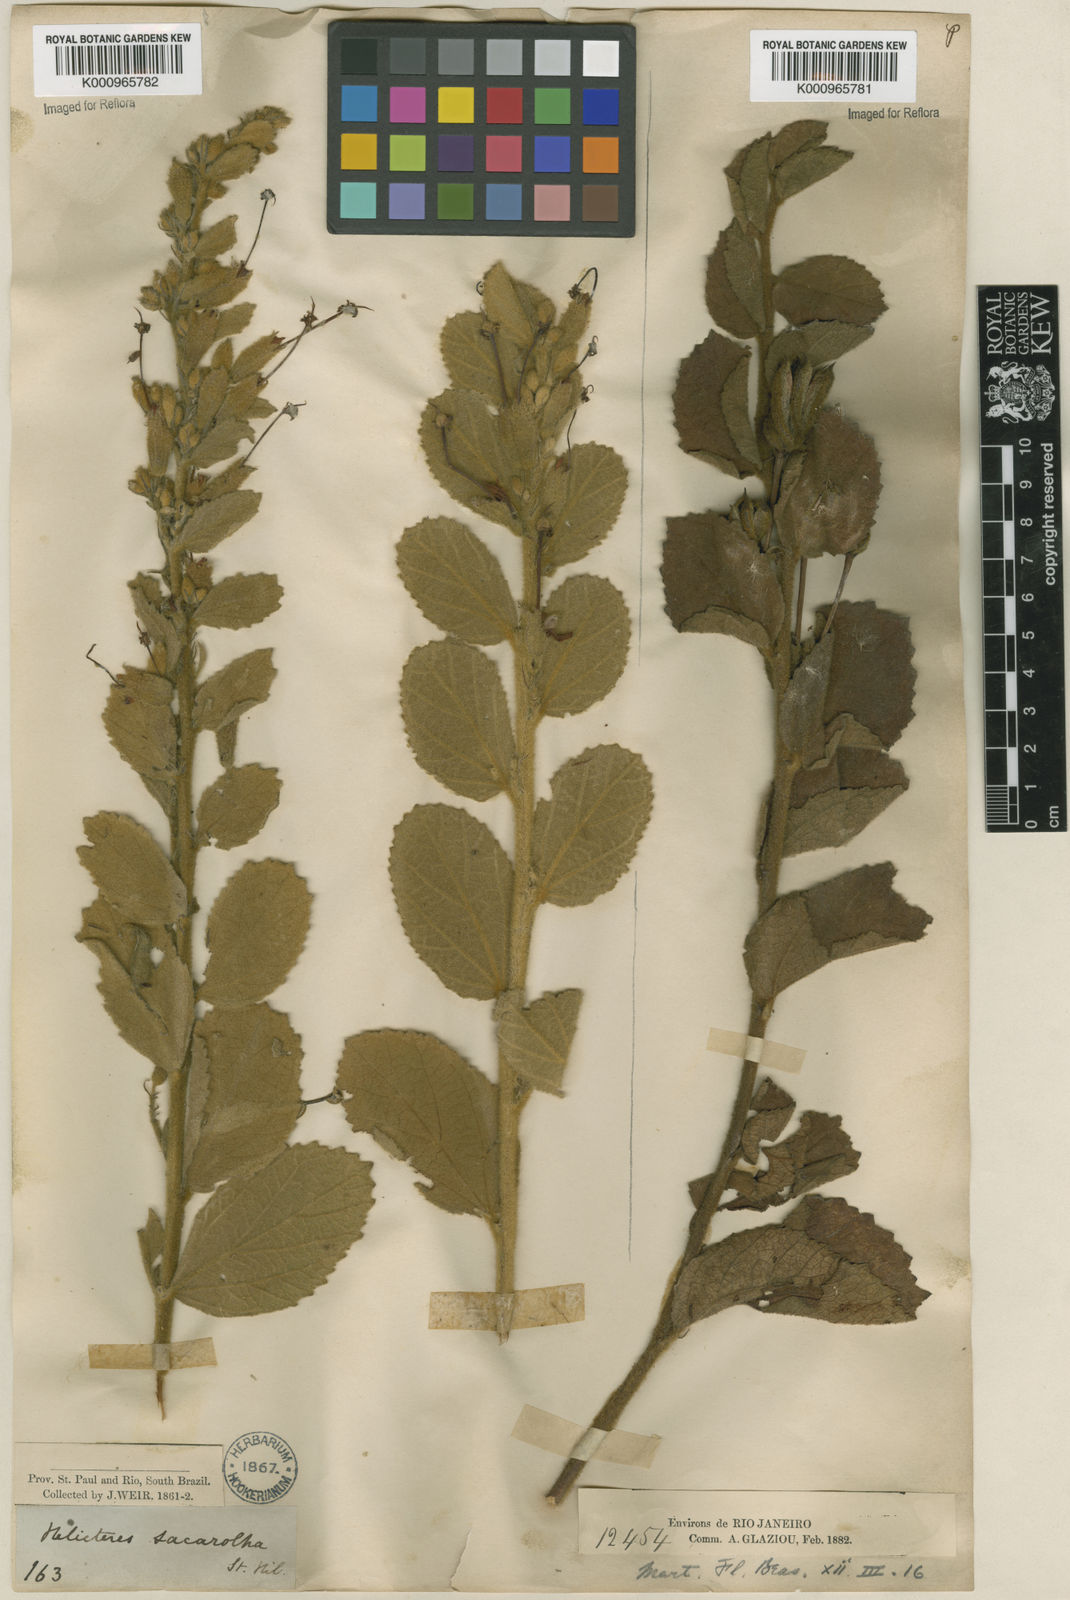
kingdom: Plantae
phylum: Tracheophyta
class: Magnoliopsida
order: Malvales
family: Malvaceae
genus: Helicteres
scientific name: Helicteres
